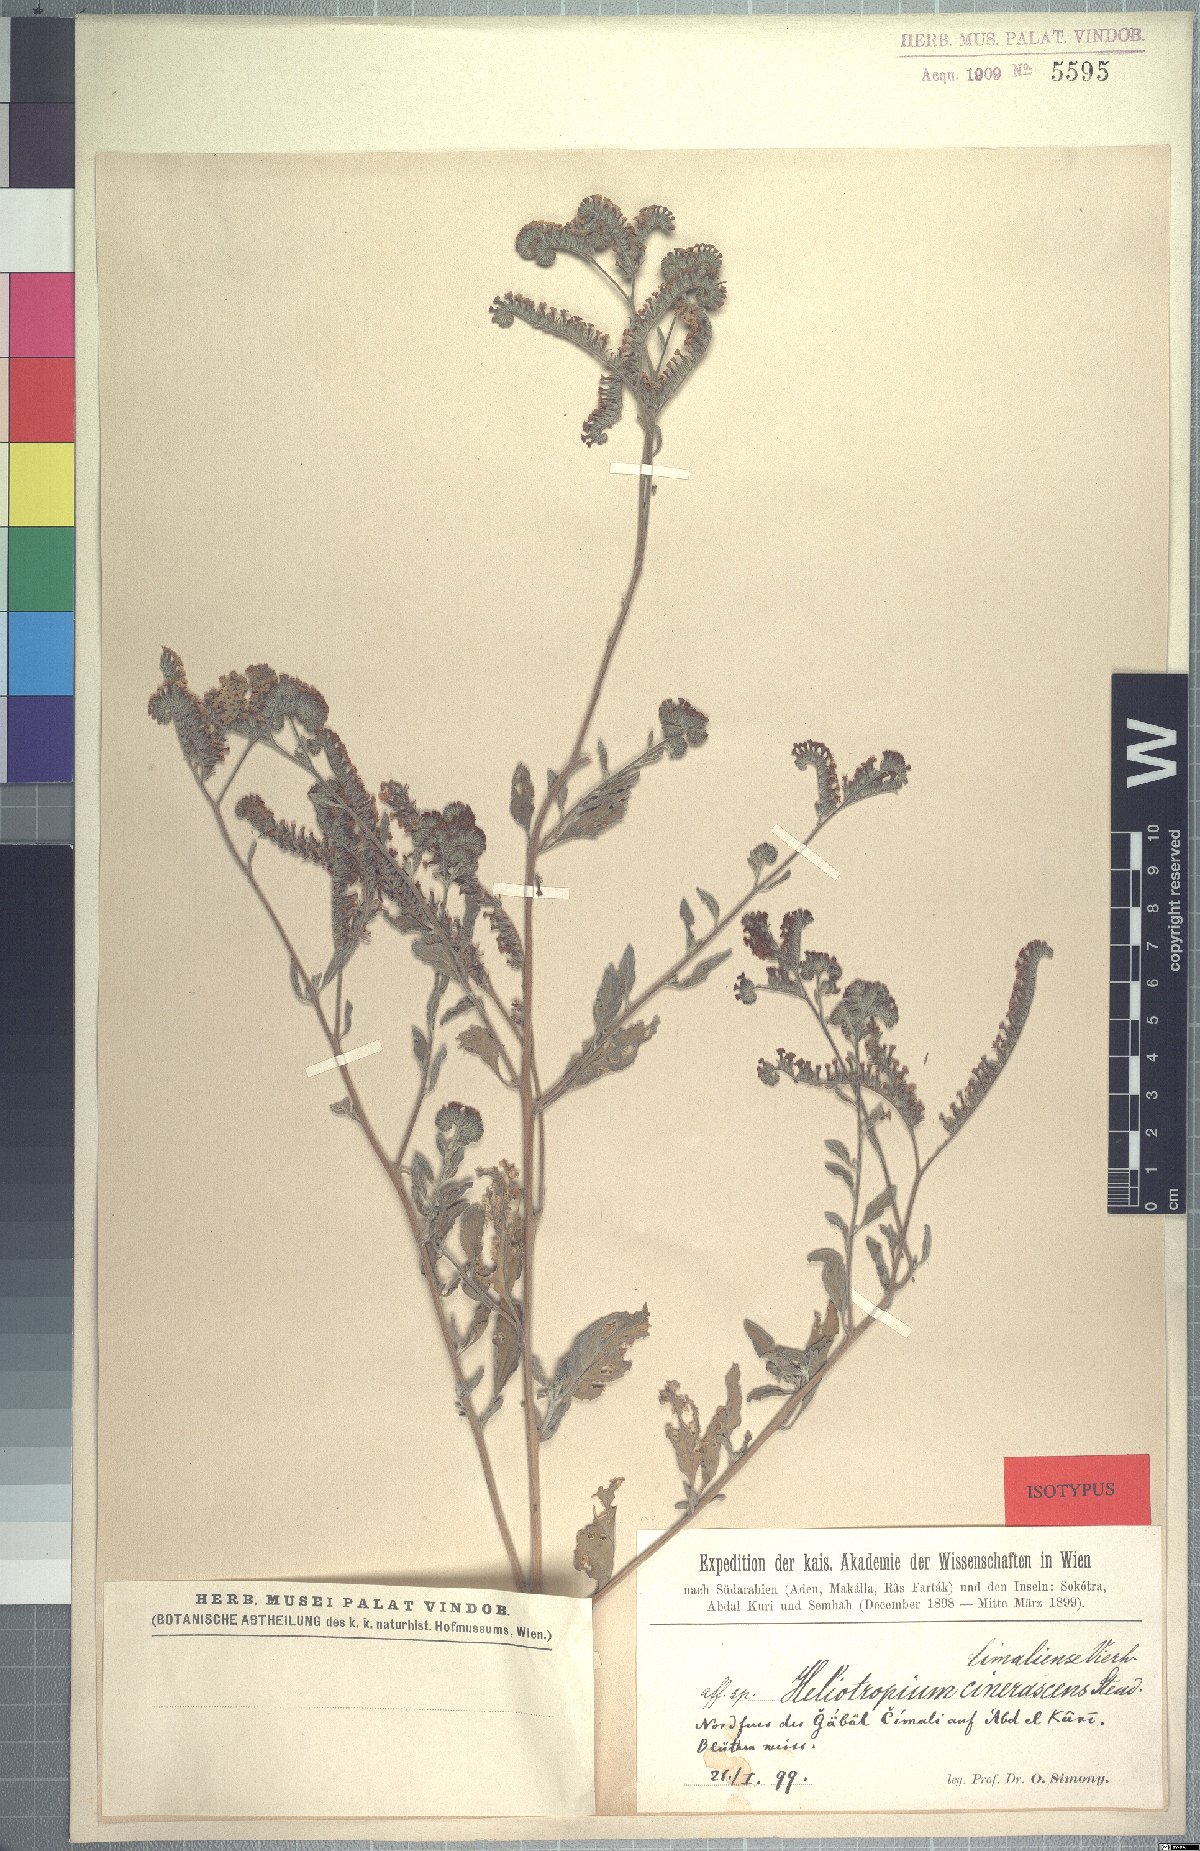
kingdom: Plantae
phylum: Tracheophyta
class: Magnoliopsida
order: Boraginales
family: Heliotropiaceae
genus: Heliotropium
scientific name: Heliotropium aegyptiacum
